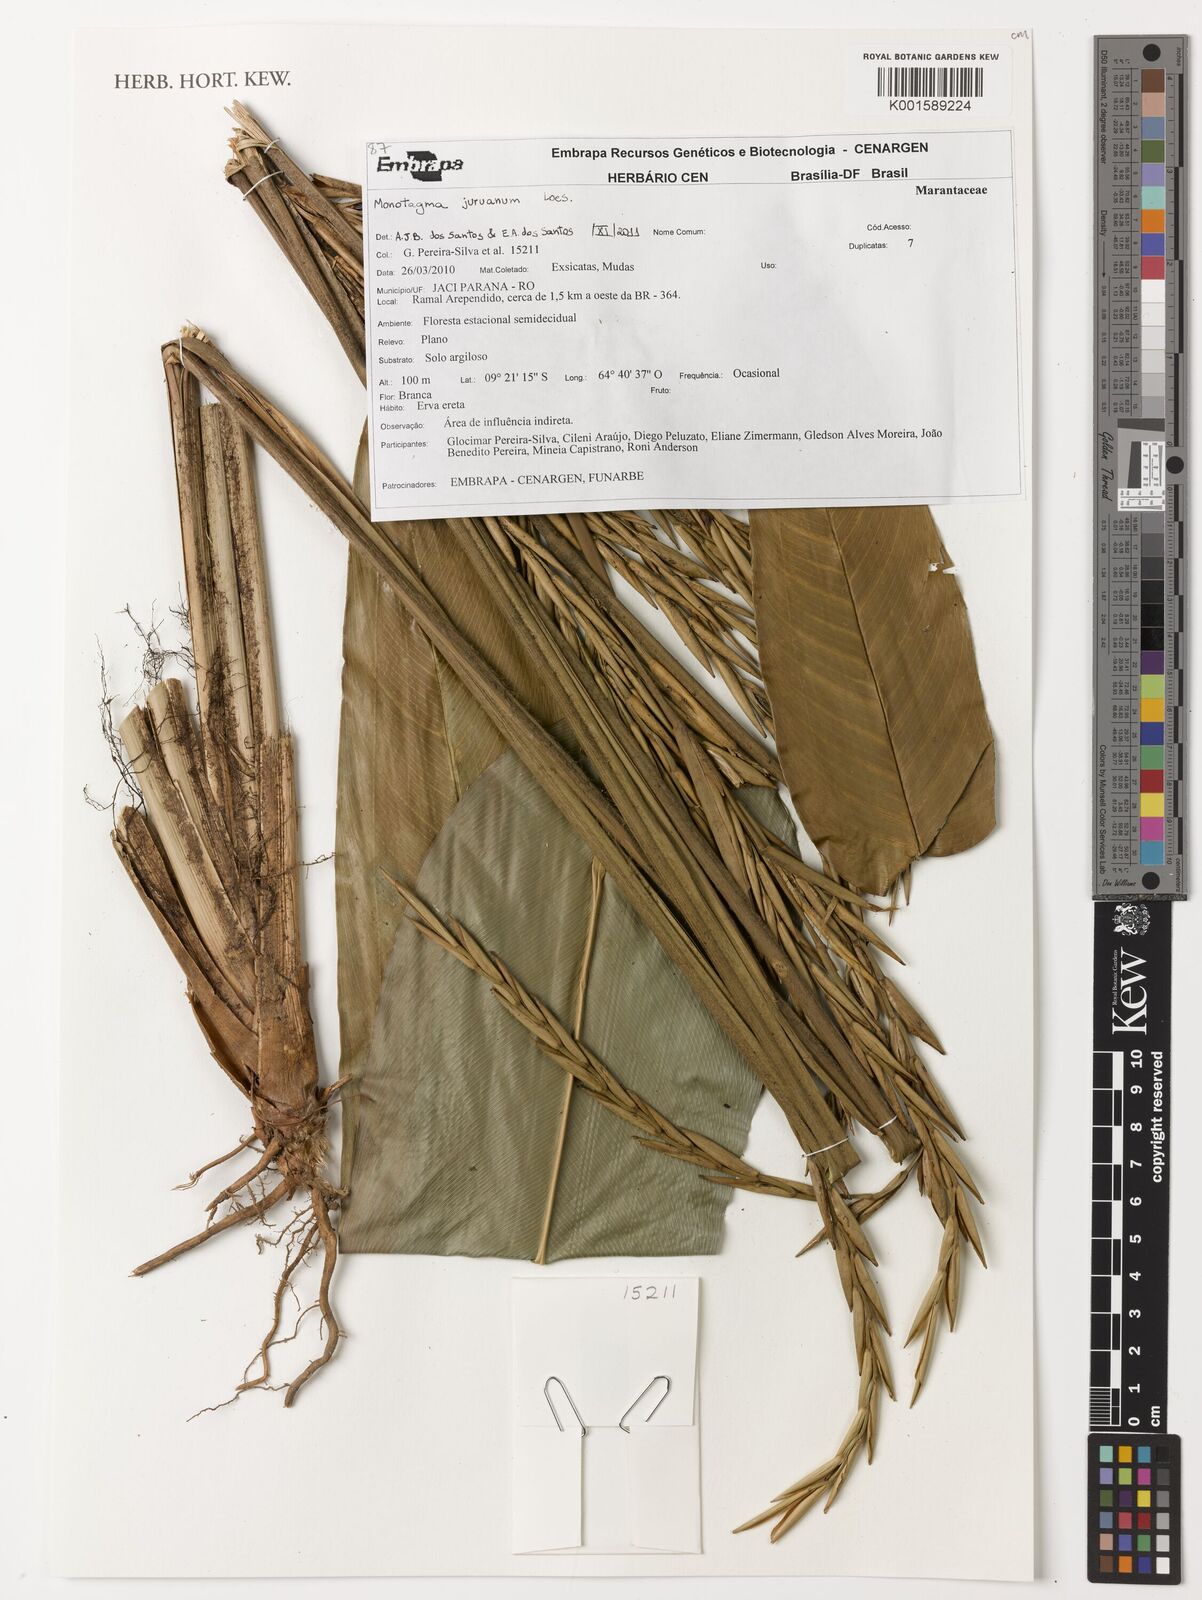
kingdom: Plantae
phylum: Tracheophyta
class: Liliopsida
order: Zingiberales
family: Marantaceae
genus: Monotagma
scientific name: Monotagma juruanum
